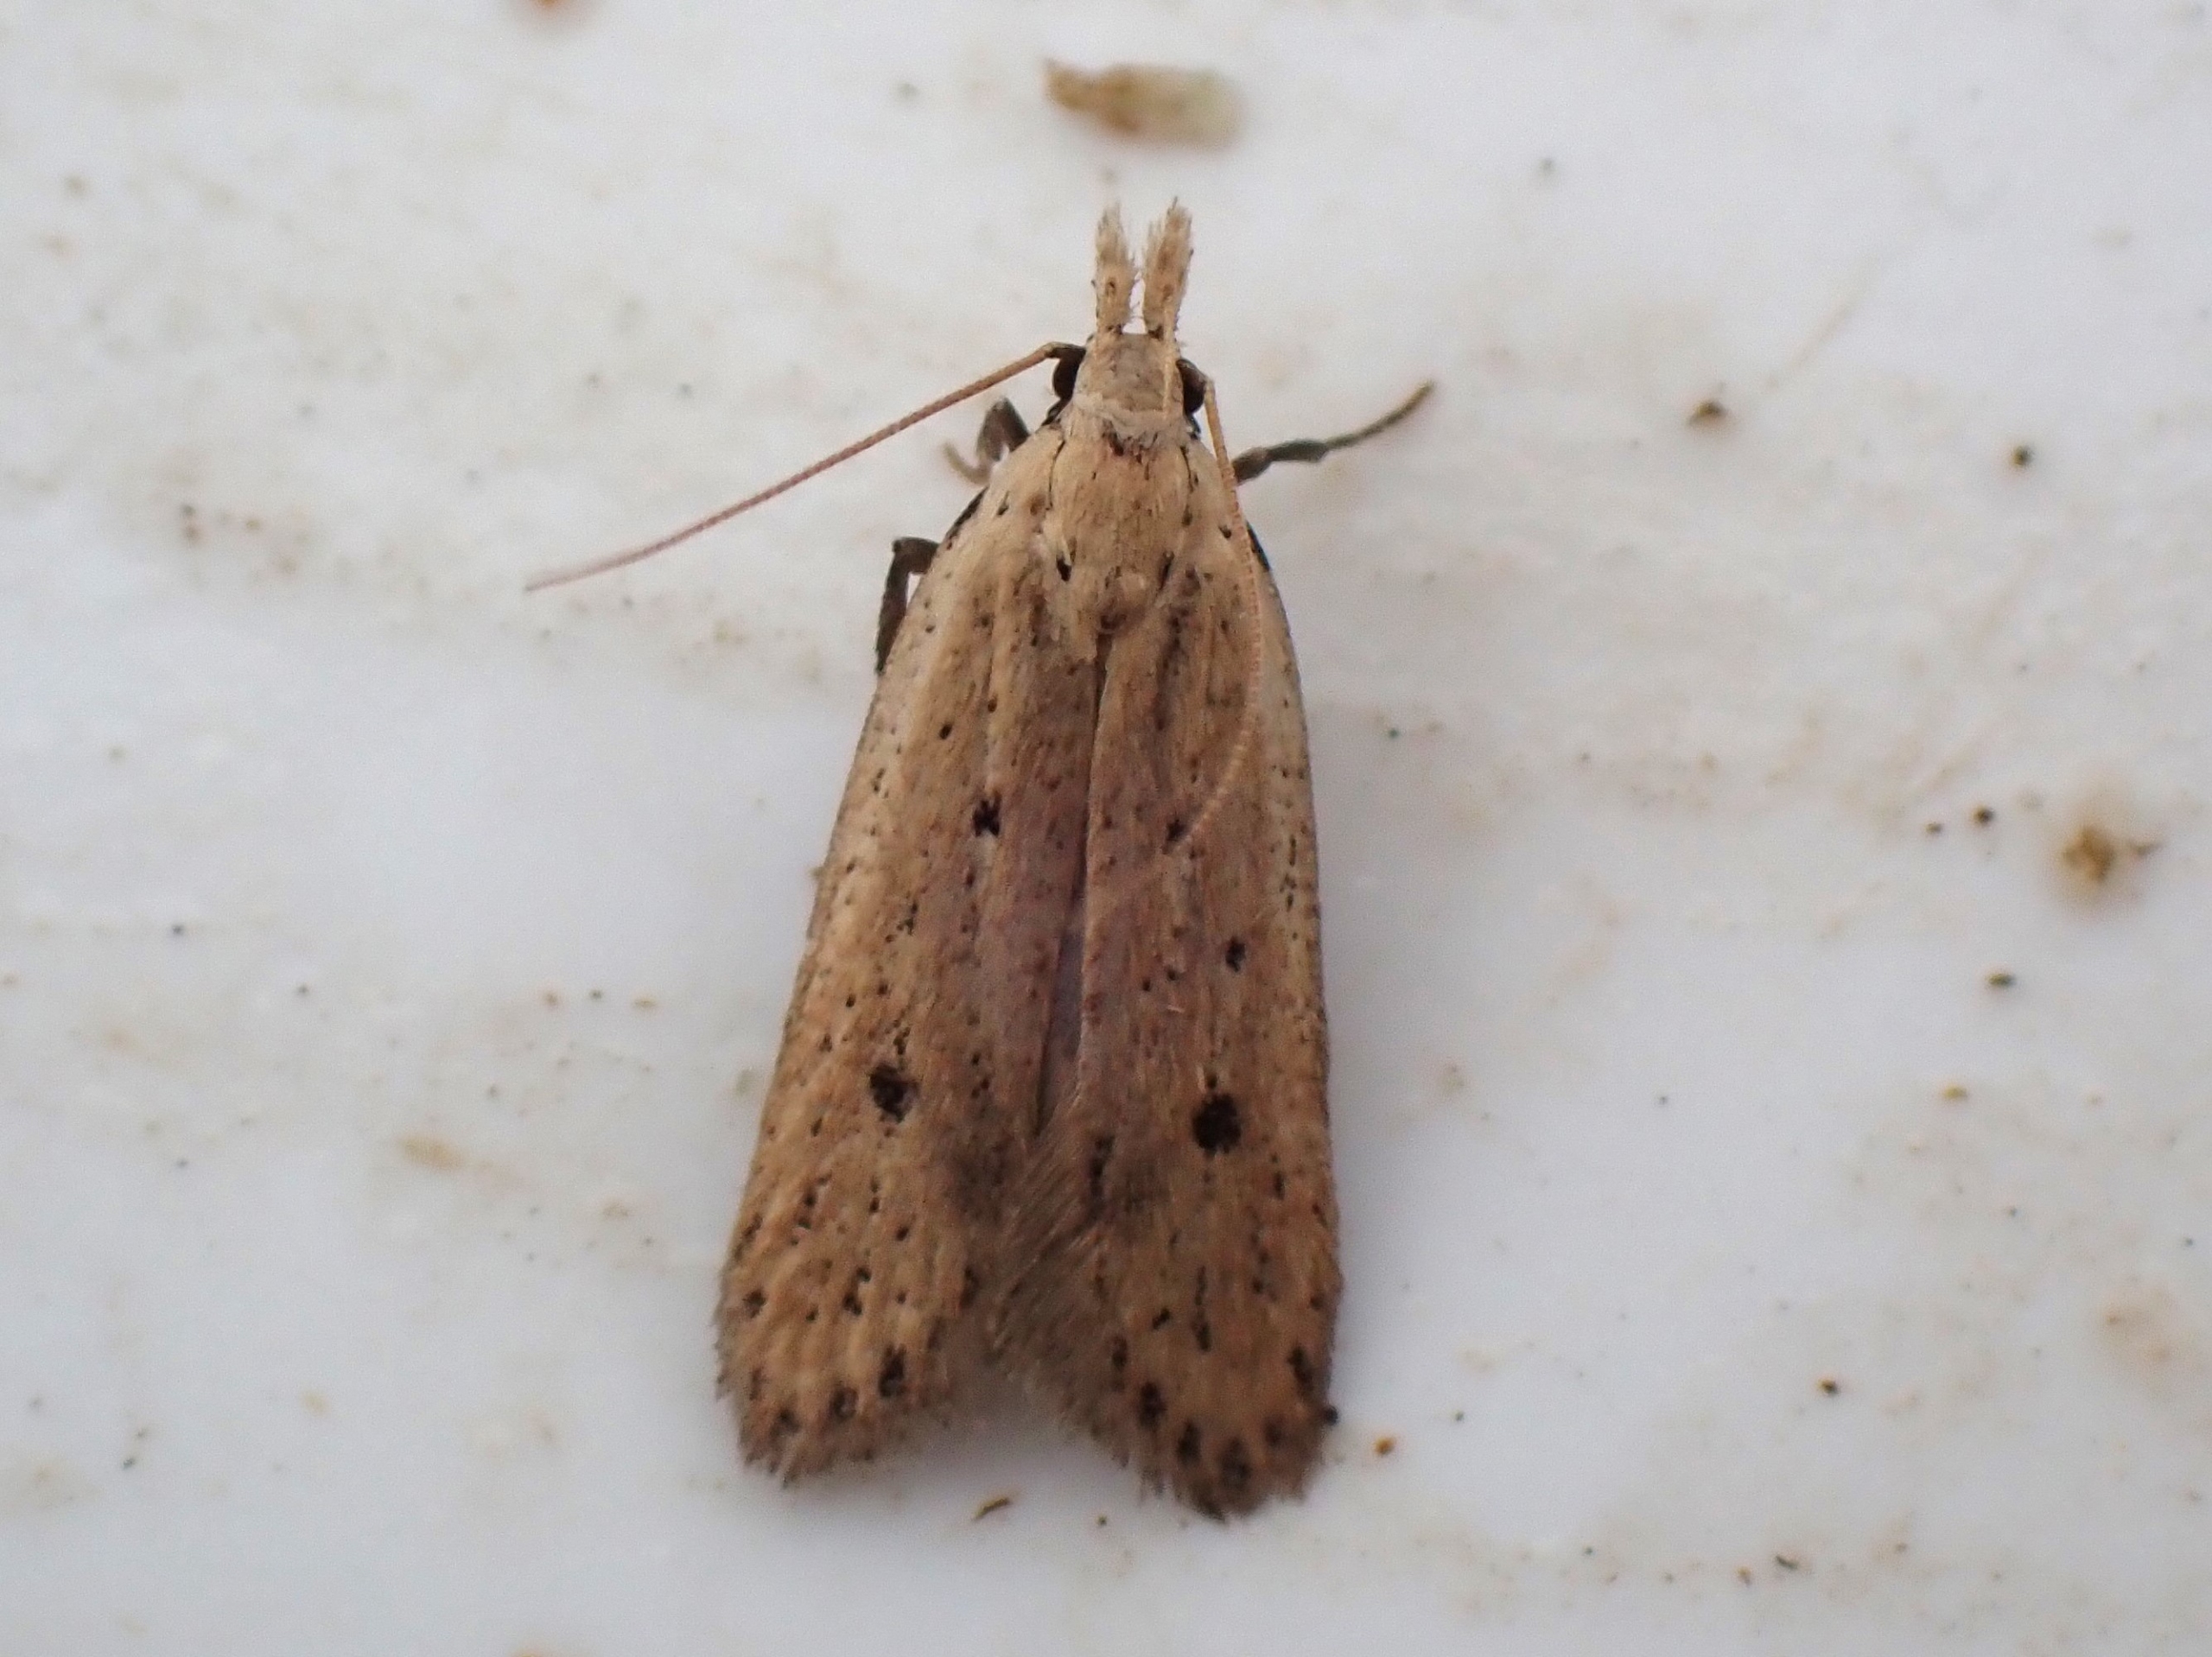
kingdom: Animalia
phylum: Arthropoda
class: Insecta
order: Lepidoptera
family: Gelechiidae
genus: Nothris
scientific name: Nothris verbascella
